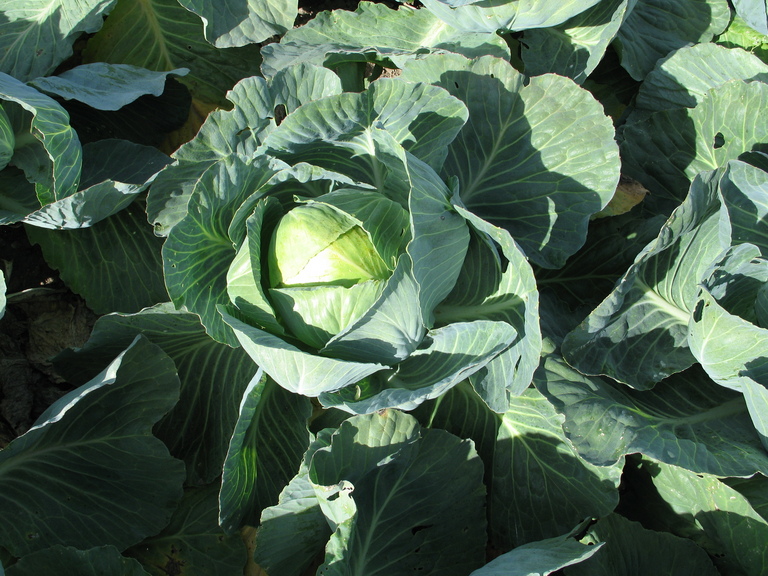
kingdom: Plantae
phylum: Tracheophyta
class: Magnoliopsida
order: Brassicales
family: Brassicaceae
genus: Brassica
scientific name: Brassica oleracea
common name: Cabbage
